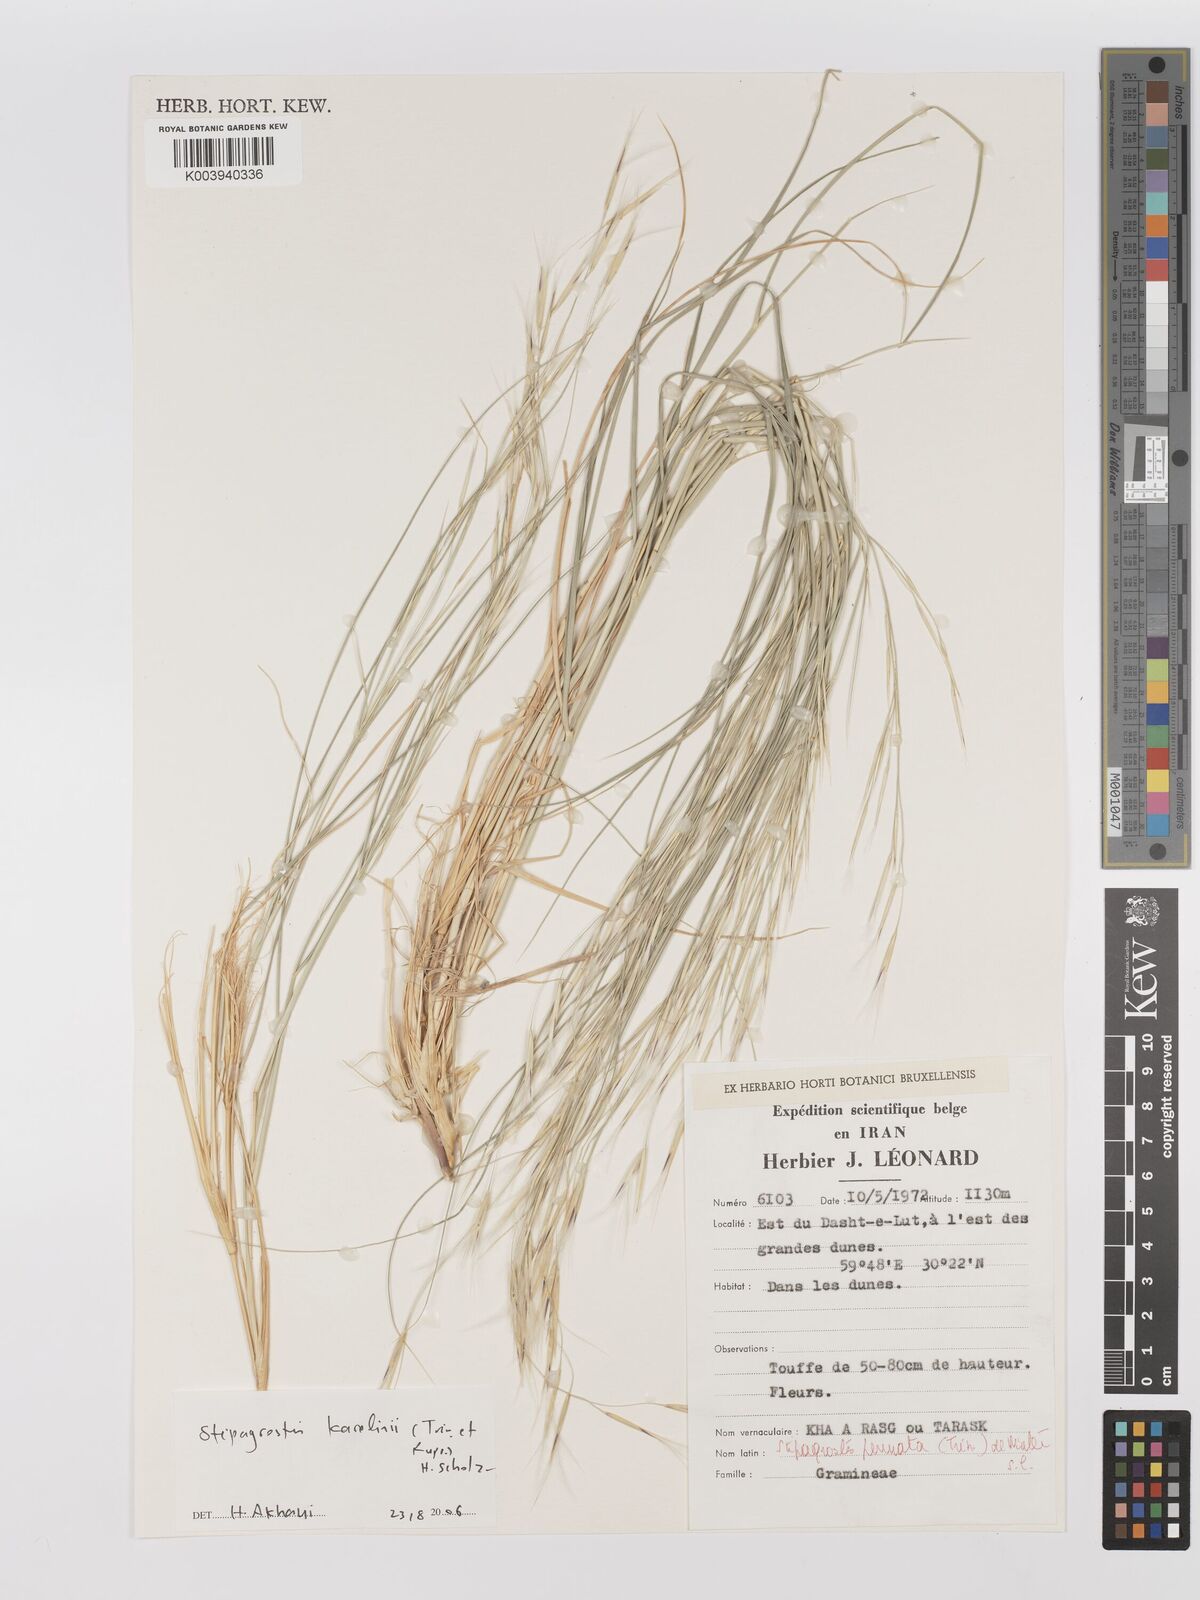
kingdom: Plantae
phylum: Tracheophyta
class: Liliopsida
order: Poales
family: Poaceae
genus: Stipagrostis
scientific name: Stipagrostis karelinii
